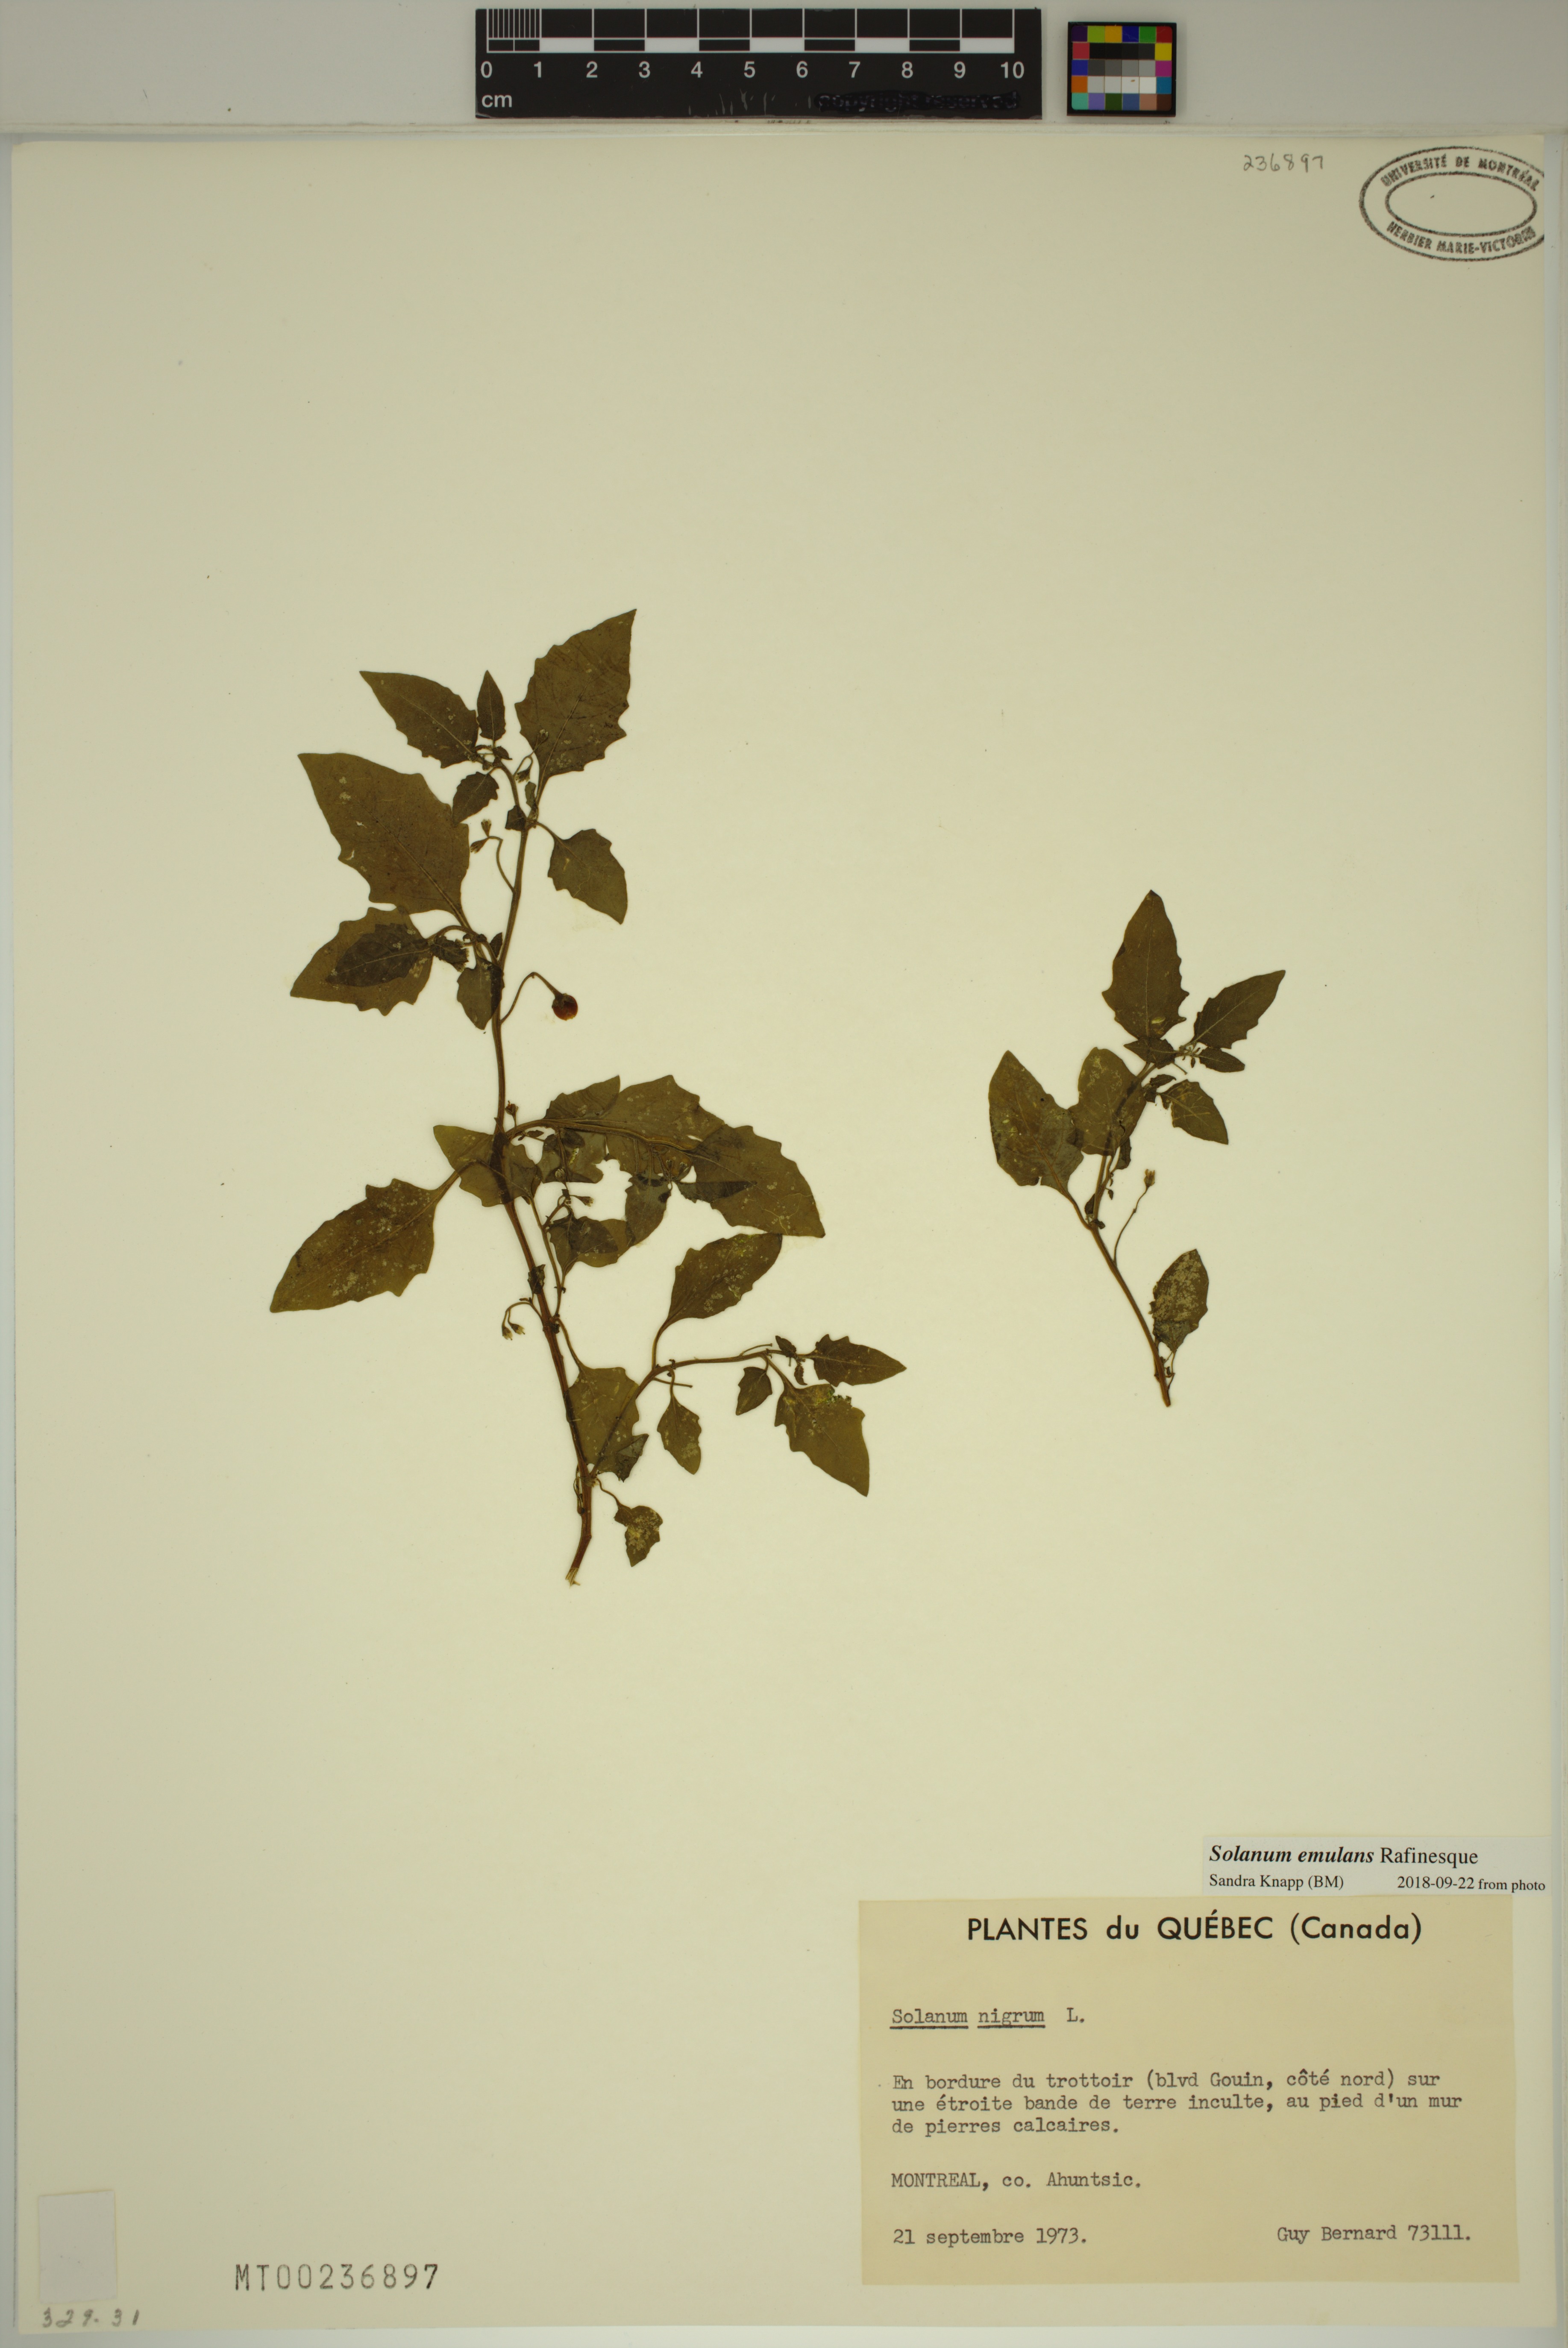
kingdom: Plantae
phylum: Tracheophyta
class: Magnoliopsida
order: Solanales
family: Solanaceae
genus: Solanum
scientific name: Solanum emulans
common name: Eastern black nightshade
